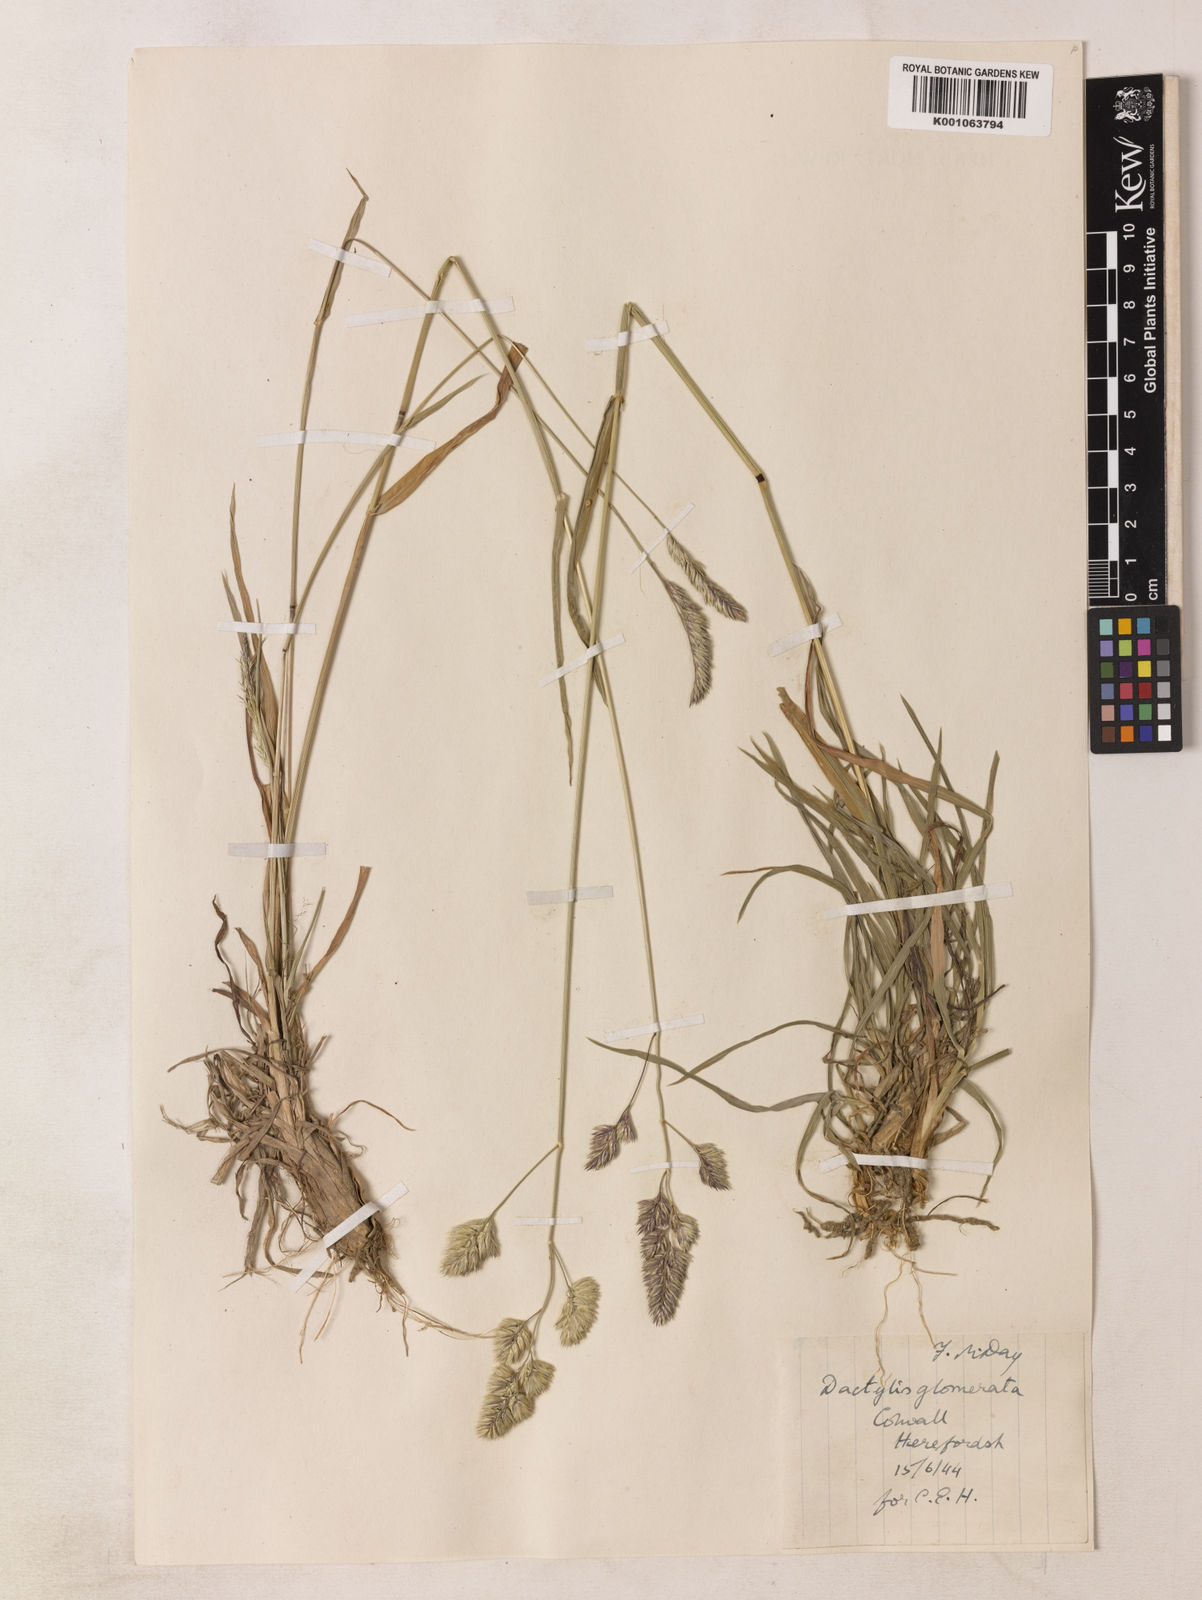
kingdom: Plantae
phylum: Tracheophyta
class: Liliopsida
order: Poales
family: Poaceae
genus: Dactylis
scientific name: Dactylis glomerata
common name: Orchardgrass
